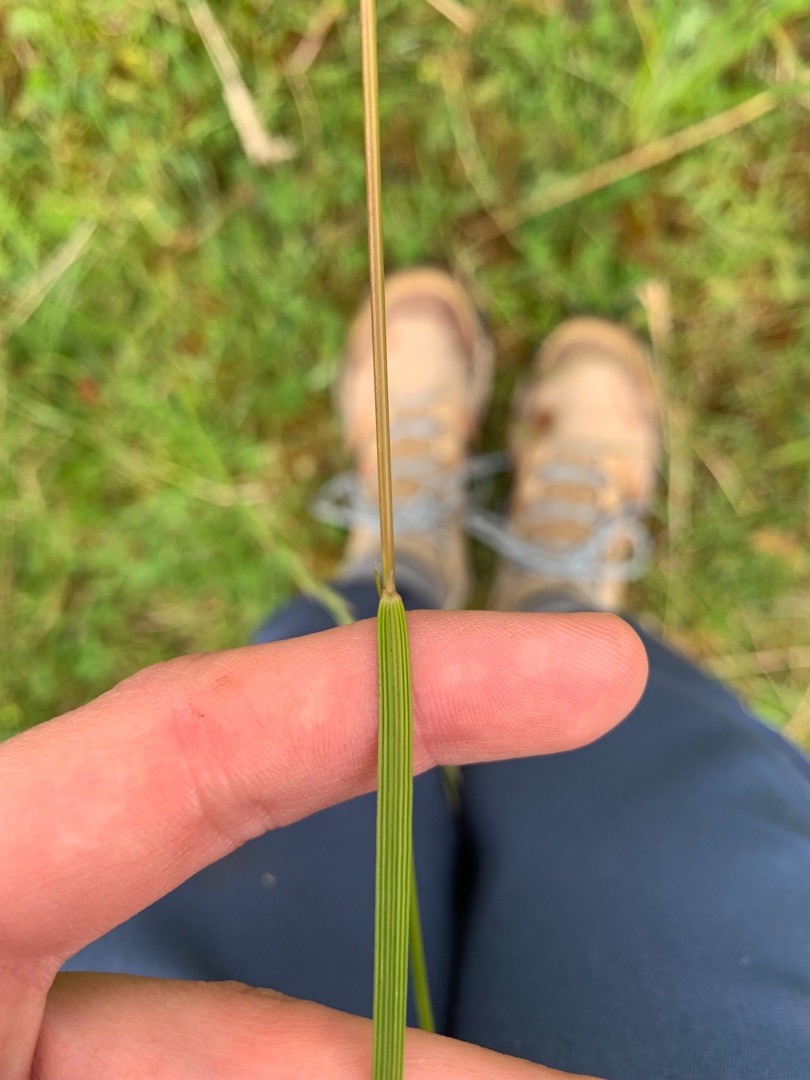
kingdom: Plantae
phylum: Tracheophyta
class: Liliopsida
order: Poales
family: Poaceae
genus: Deschampsia
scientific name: Deschampsia cespitosa
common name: Mose-bunke
